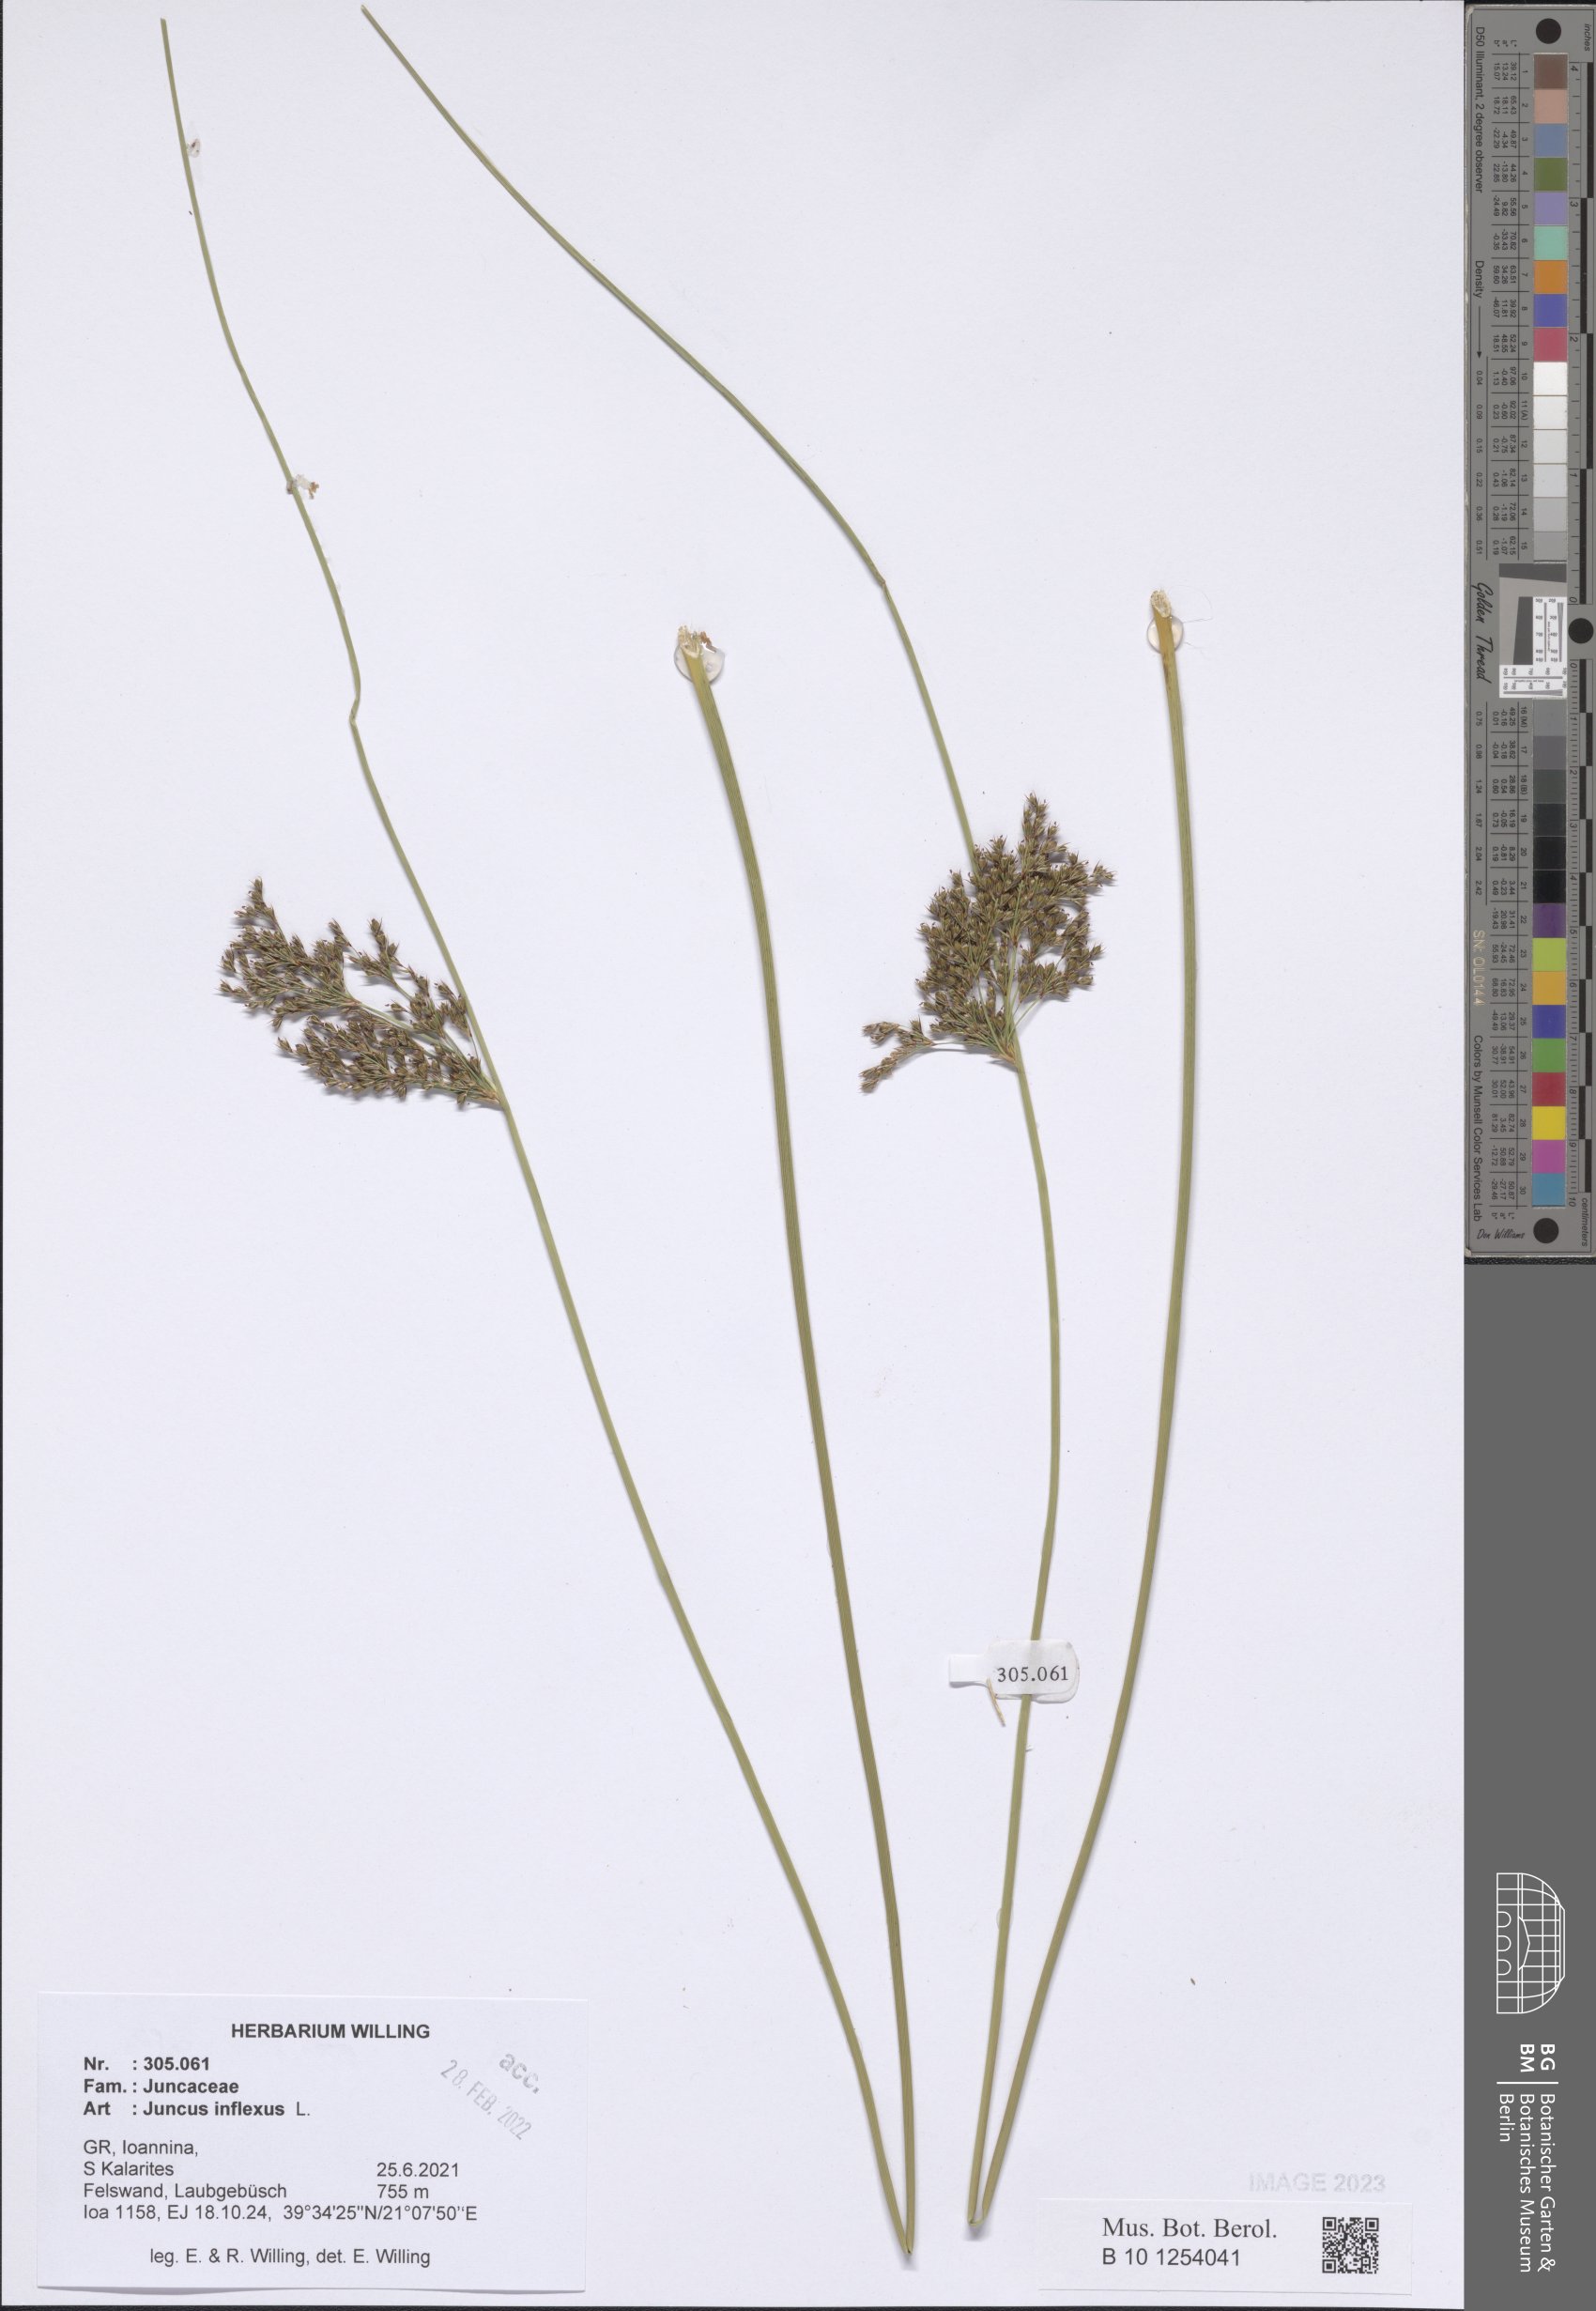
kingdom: Plantae
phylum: Tracheophyta
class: Liliopsida
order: Poales
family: Juncaceae
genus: Juncus
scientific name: Juncus inflexus
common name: Hard rush
